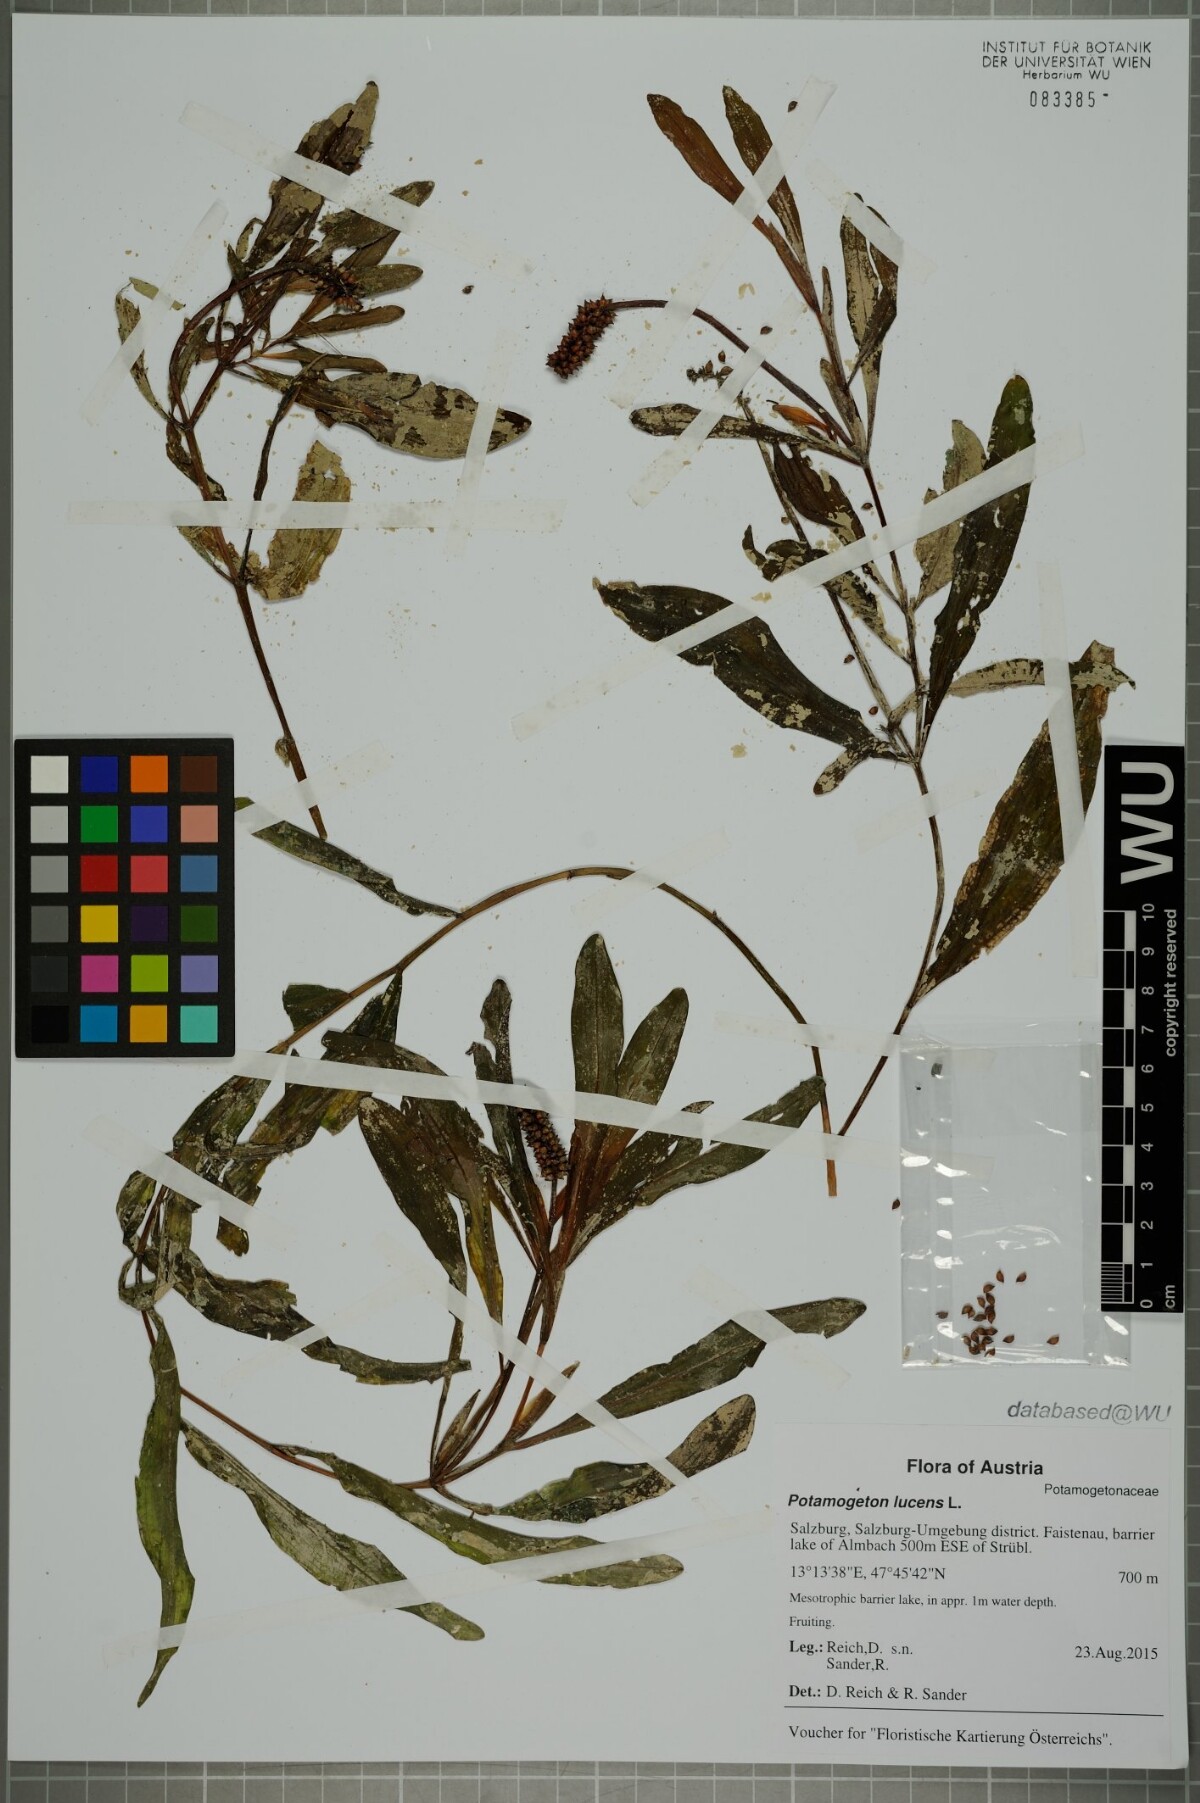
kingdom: Plantae
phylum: Tracheophyta
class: Liliopsida
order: Alismatales
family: Potamogetonaceae
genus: Potamogeton
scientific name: Potamogeton lucens
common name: Shining pondweed
